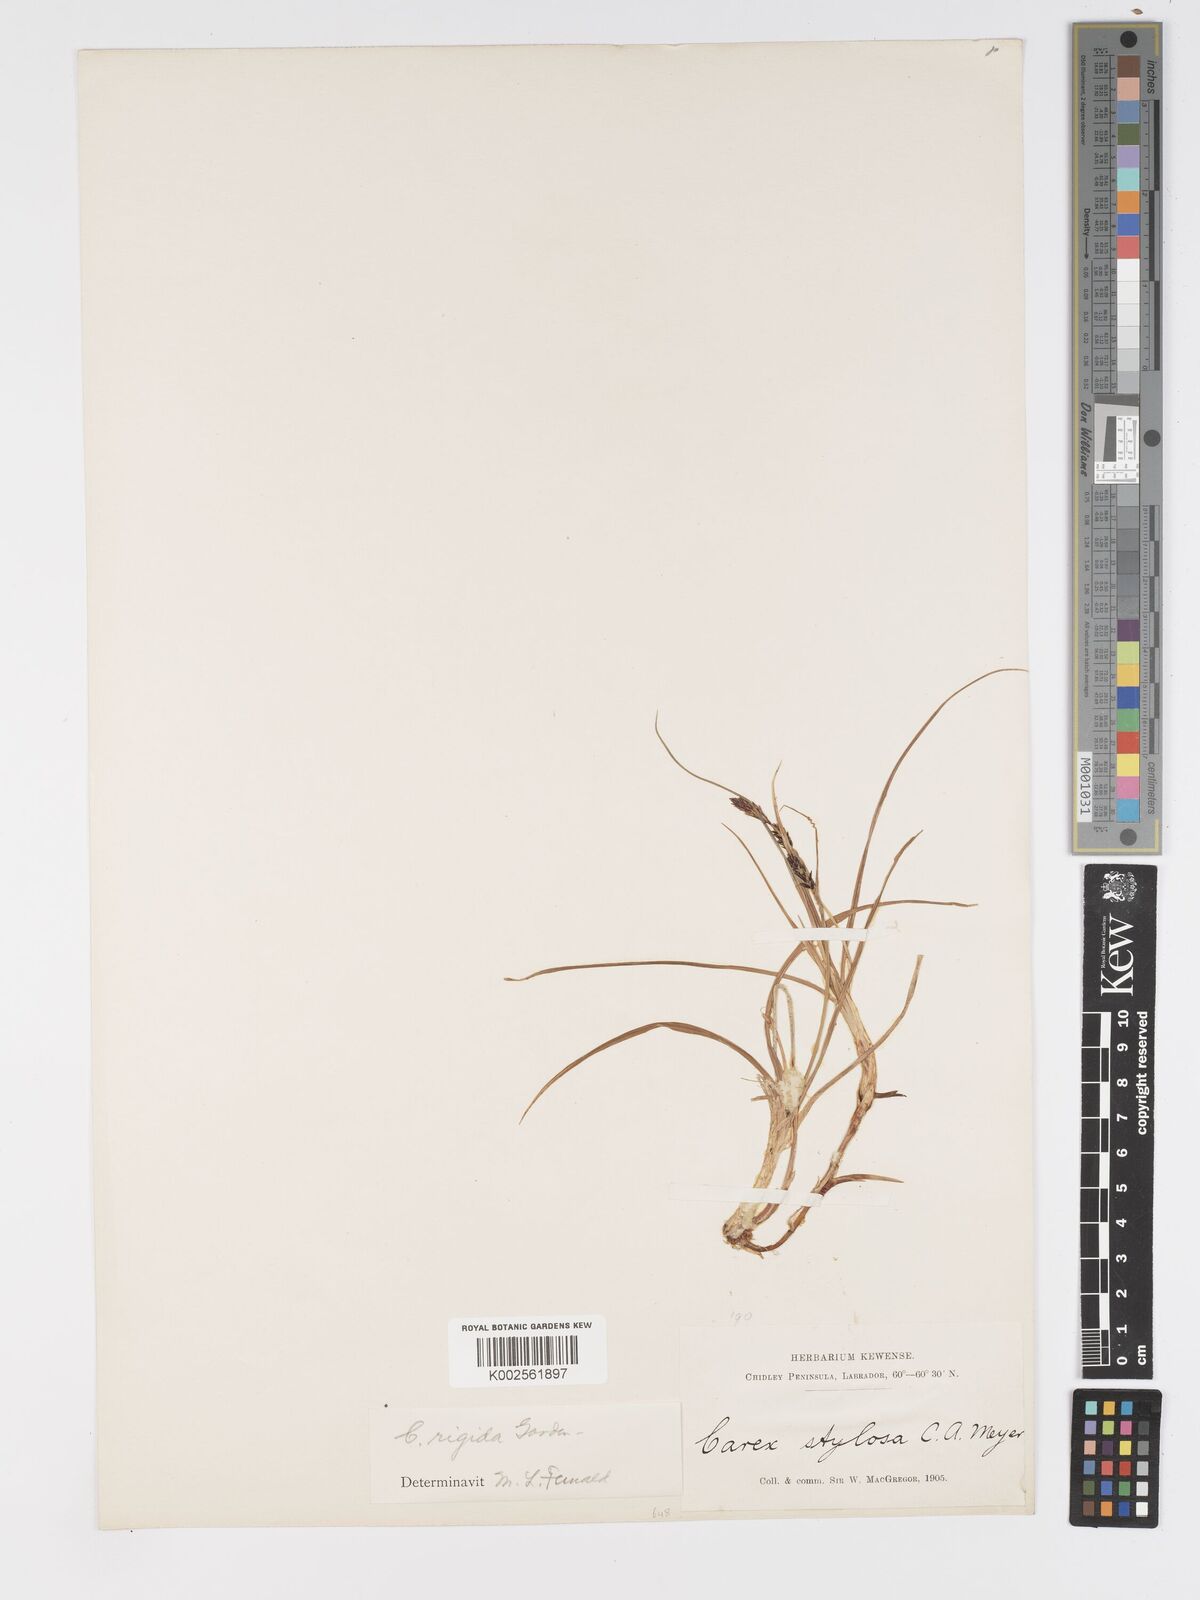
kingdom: Plantae
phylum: Tracheophyta
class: Liliopsida
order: Poales
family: Cyperaceae
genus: Carex
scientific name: Carex bigelowii
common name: Stiff sedge
